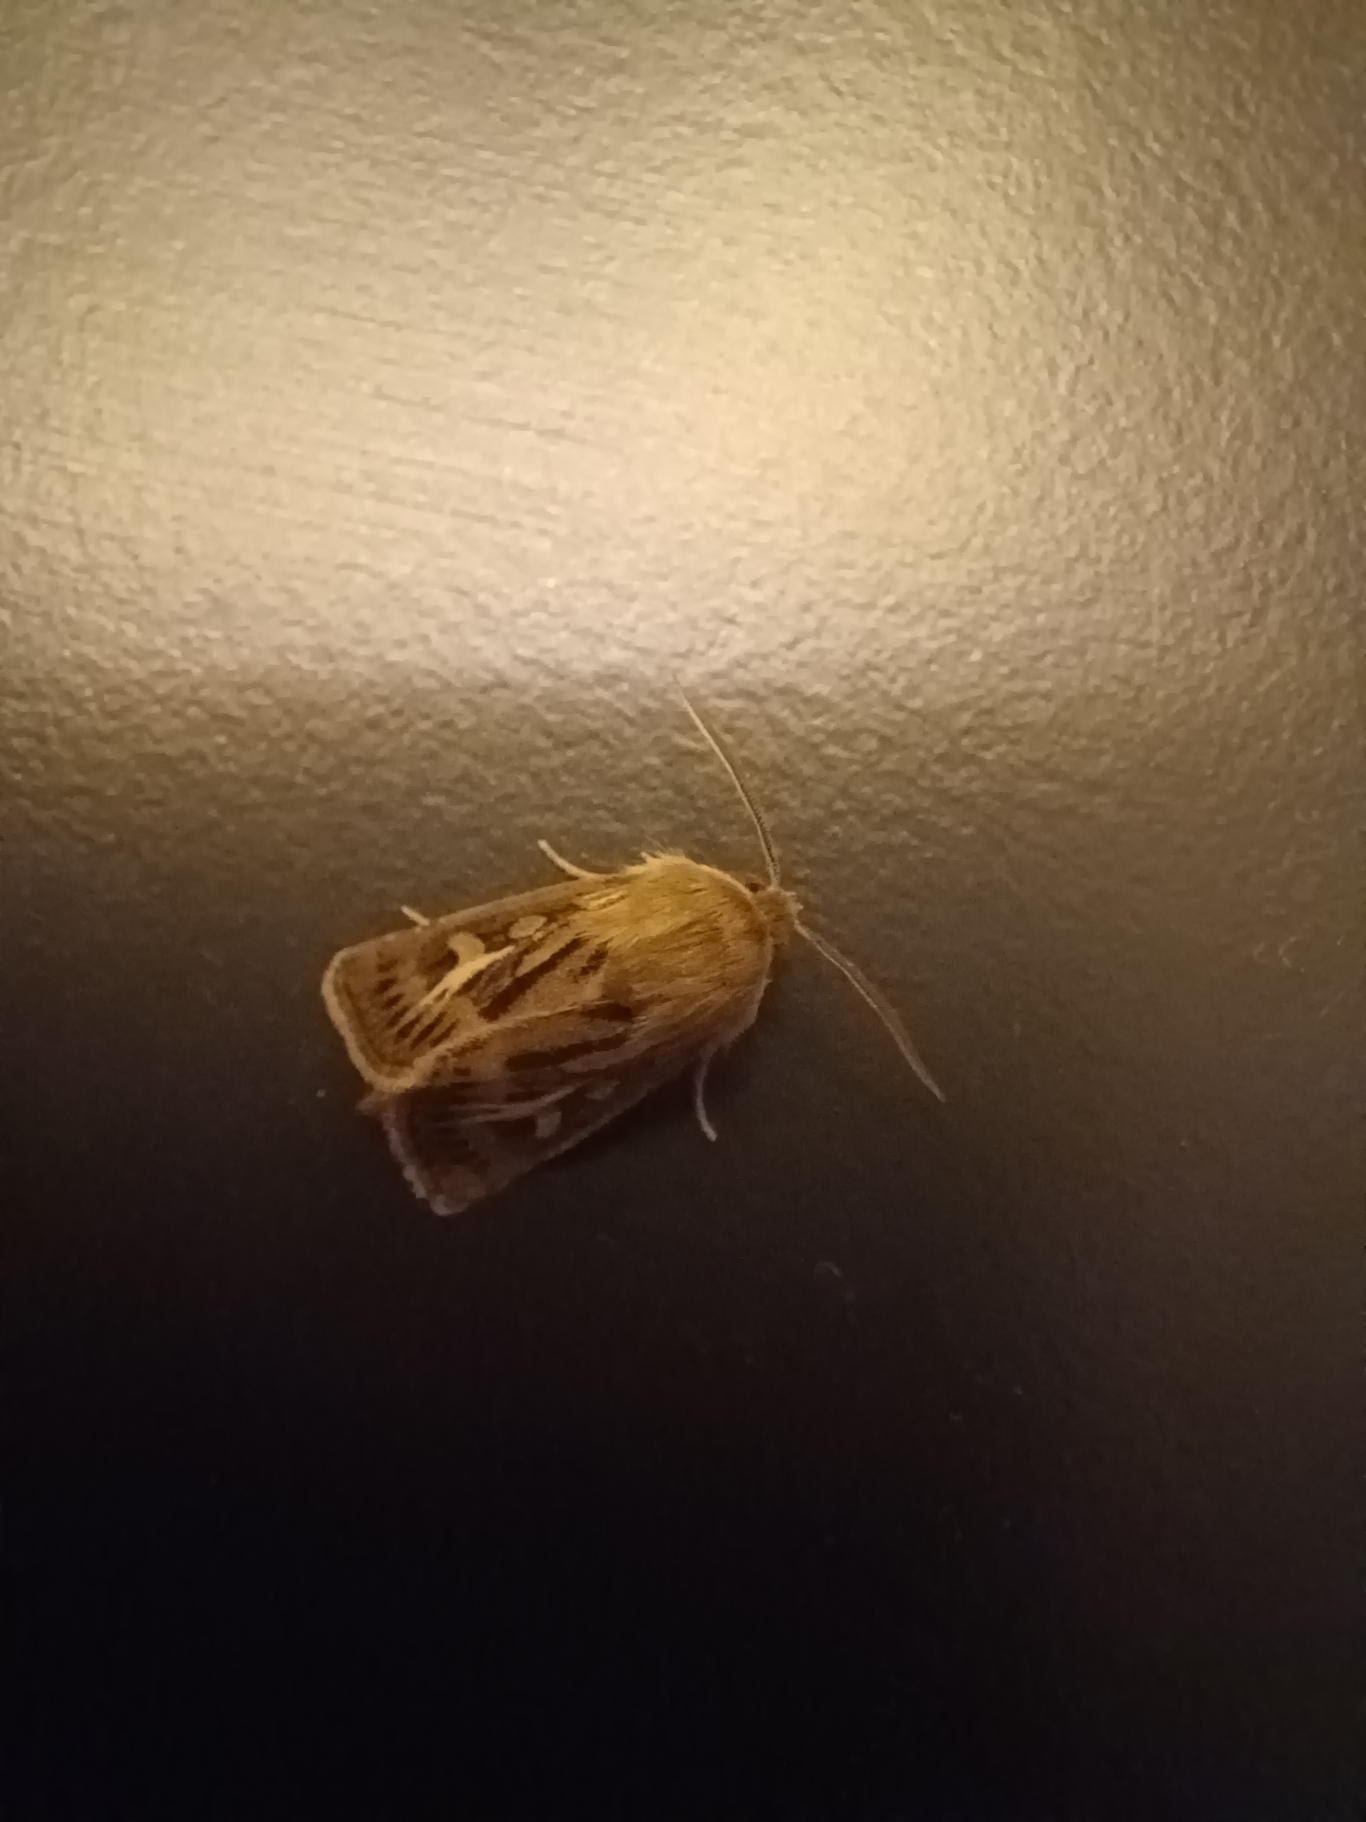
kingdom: Animalia
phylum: Arthropoda
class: Insecta
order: Lepidoptera
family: Noctuidae
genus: Cerapteryx
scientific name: Cerapteryx graminis
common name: Mosebunkeugle
